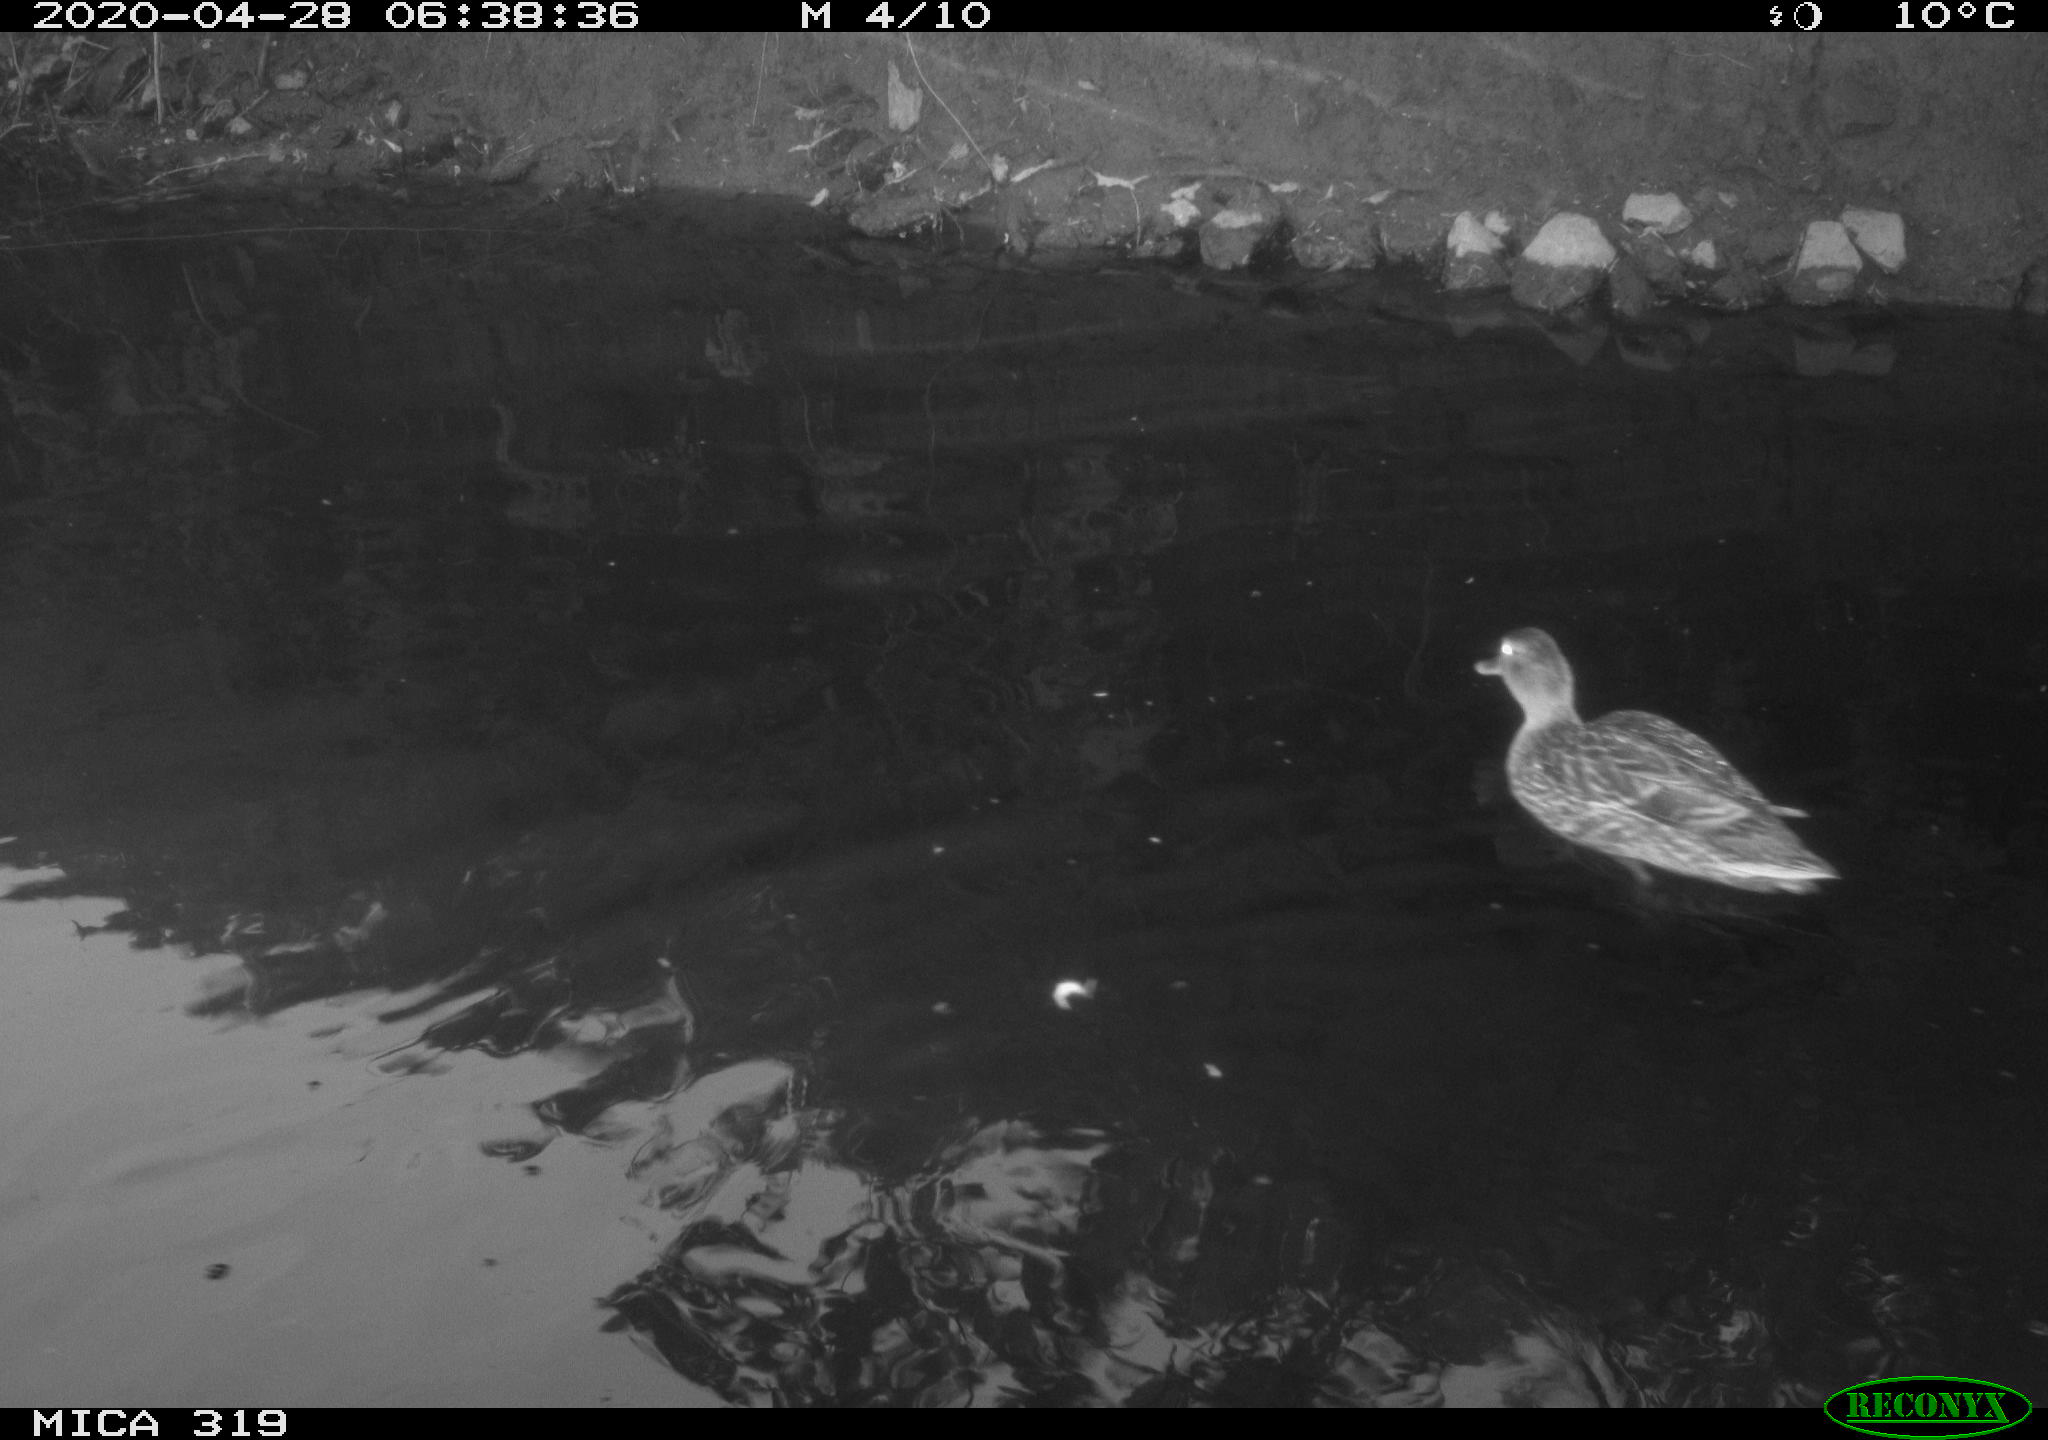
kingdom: Animalia
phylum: Chordata
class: Aves
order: Anseriformes
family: Anatidae
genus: Anas
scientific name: Anas platyrhynchos
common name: Mallard
